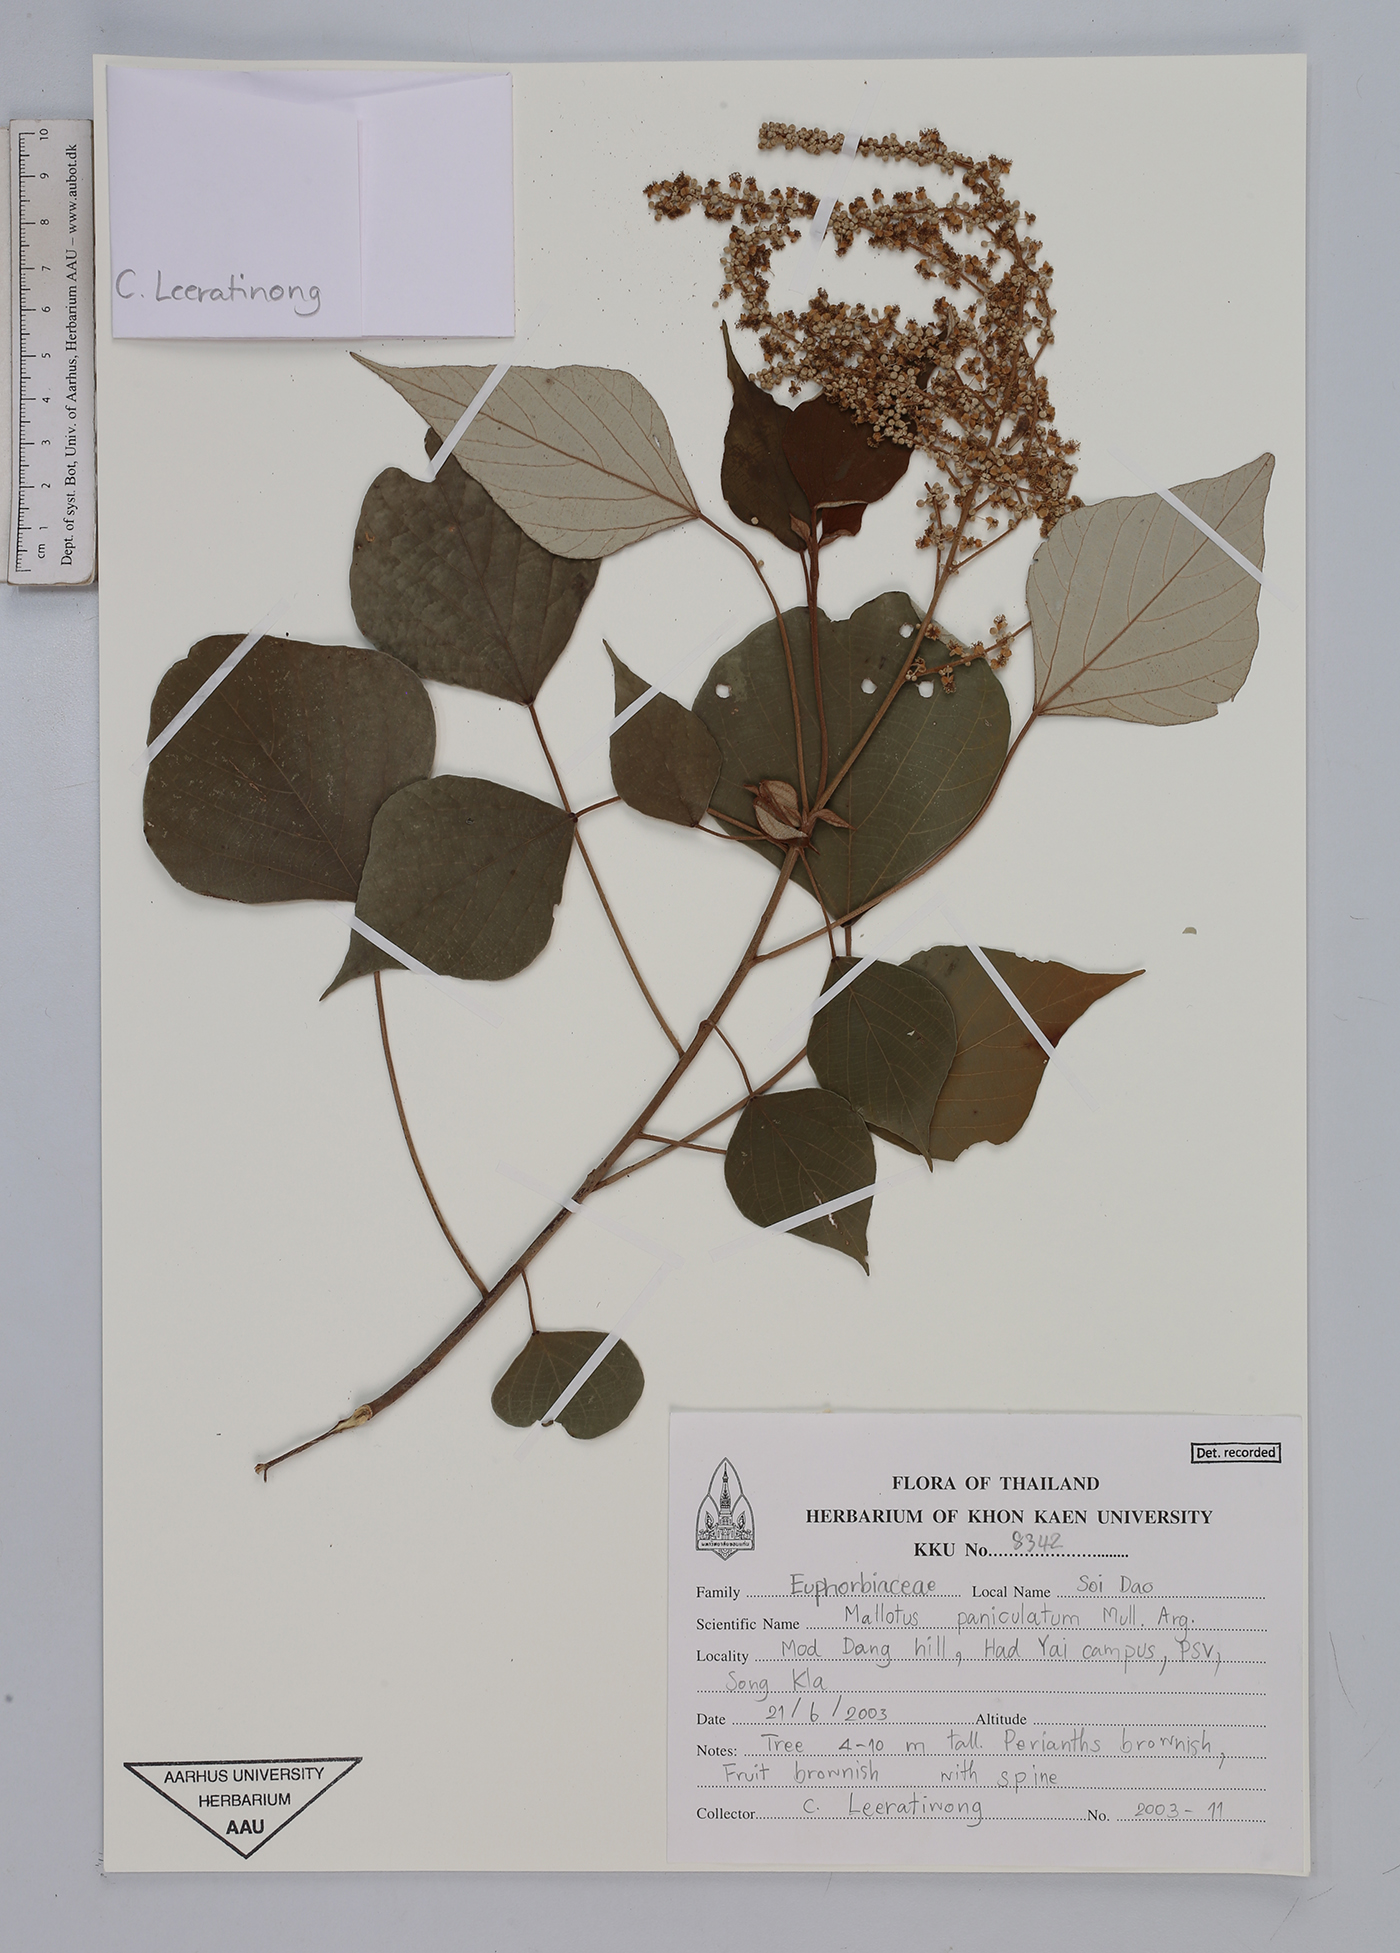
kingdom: Plantae
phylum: Tracheophyta
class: Magnoliopsida
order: Malpighiales
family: Euphorbiaceae
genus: Mallotus
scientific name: Mallotus paniculatus
